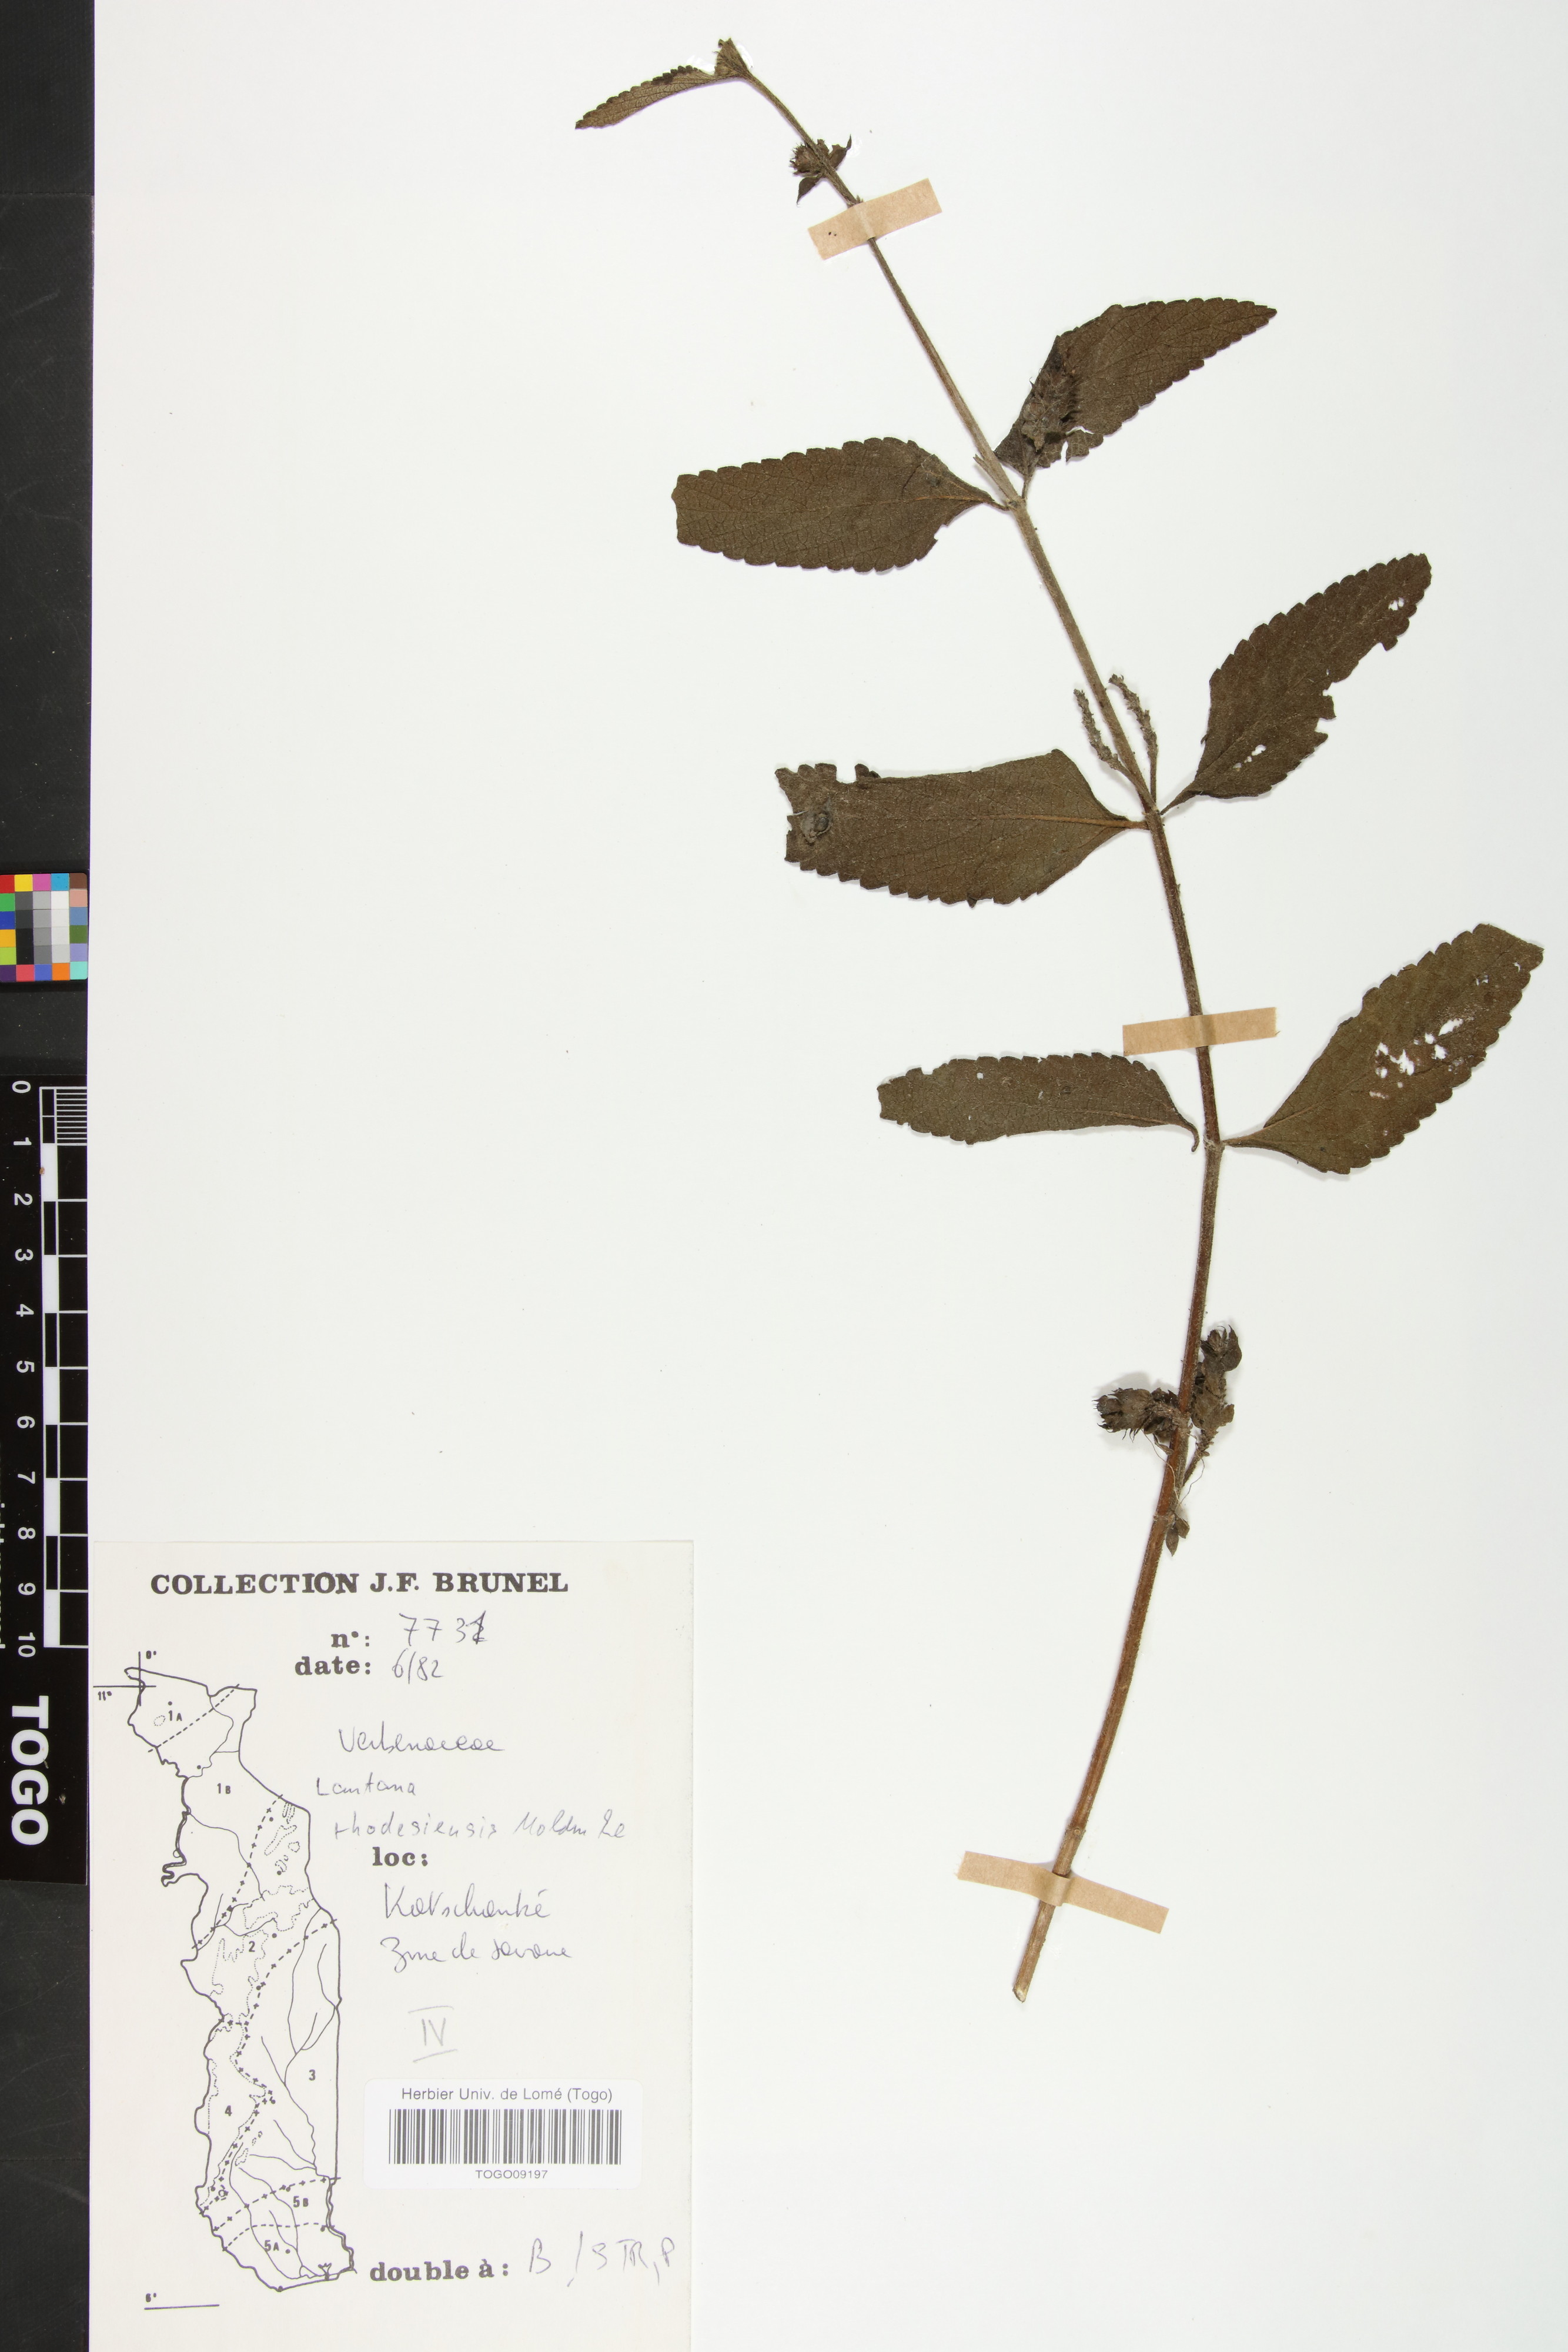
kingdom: Plantae
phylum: Tracheophyta
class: Magnoliopsida
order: Lamiales
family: Verbenaceae
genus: Lantana
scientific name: Lantana ukambensis
